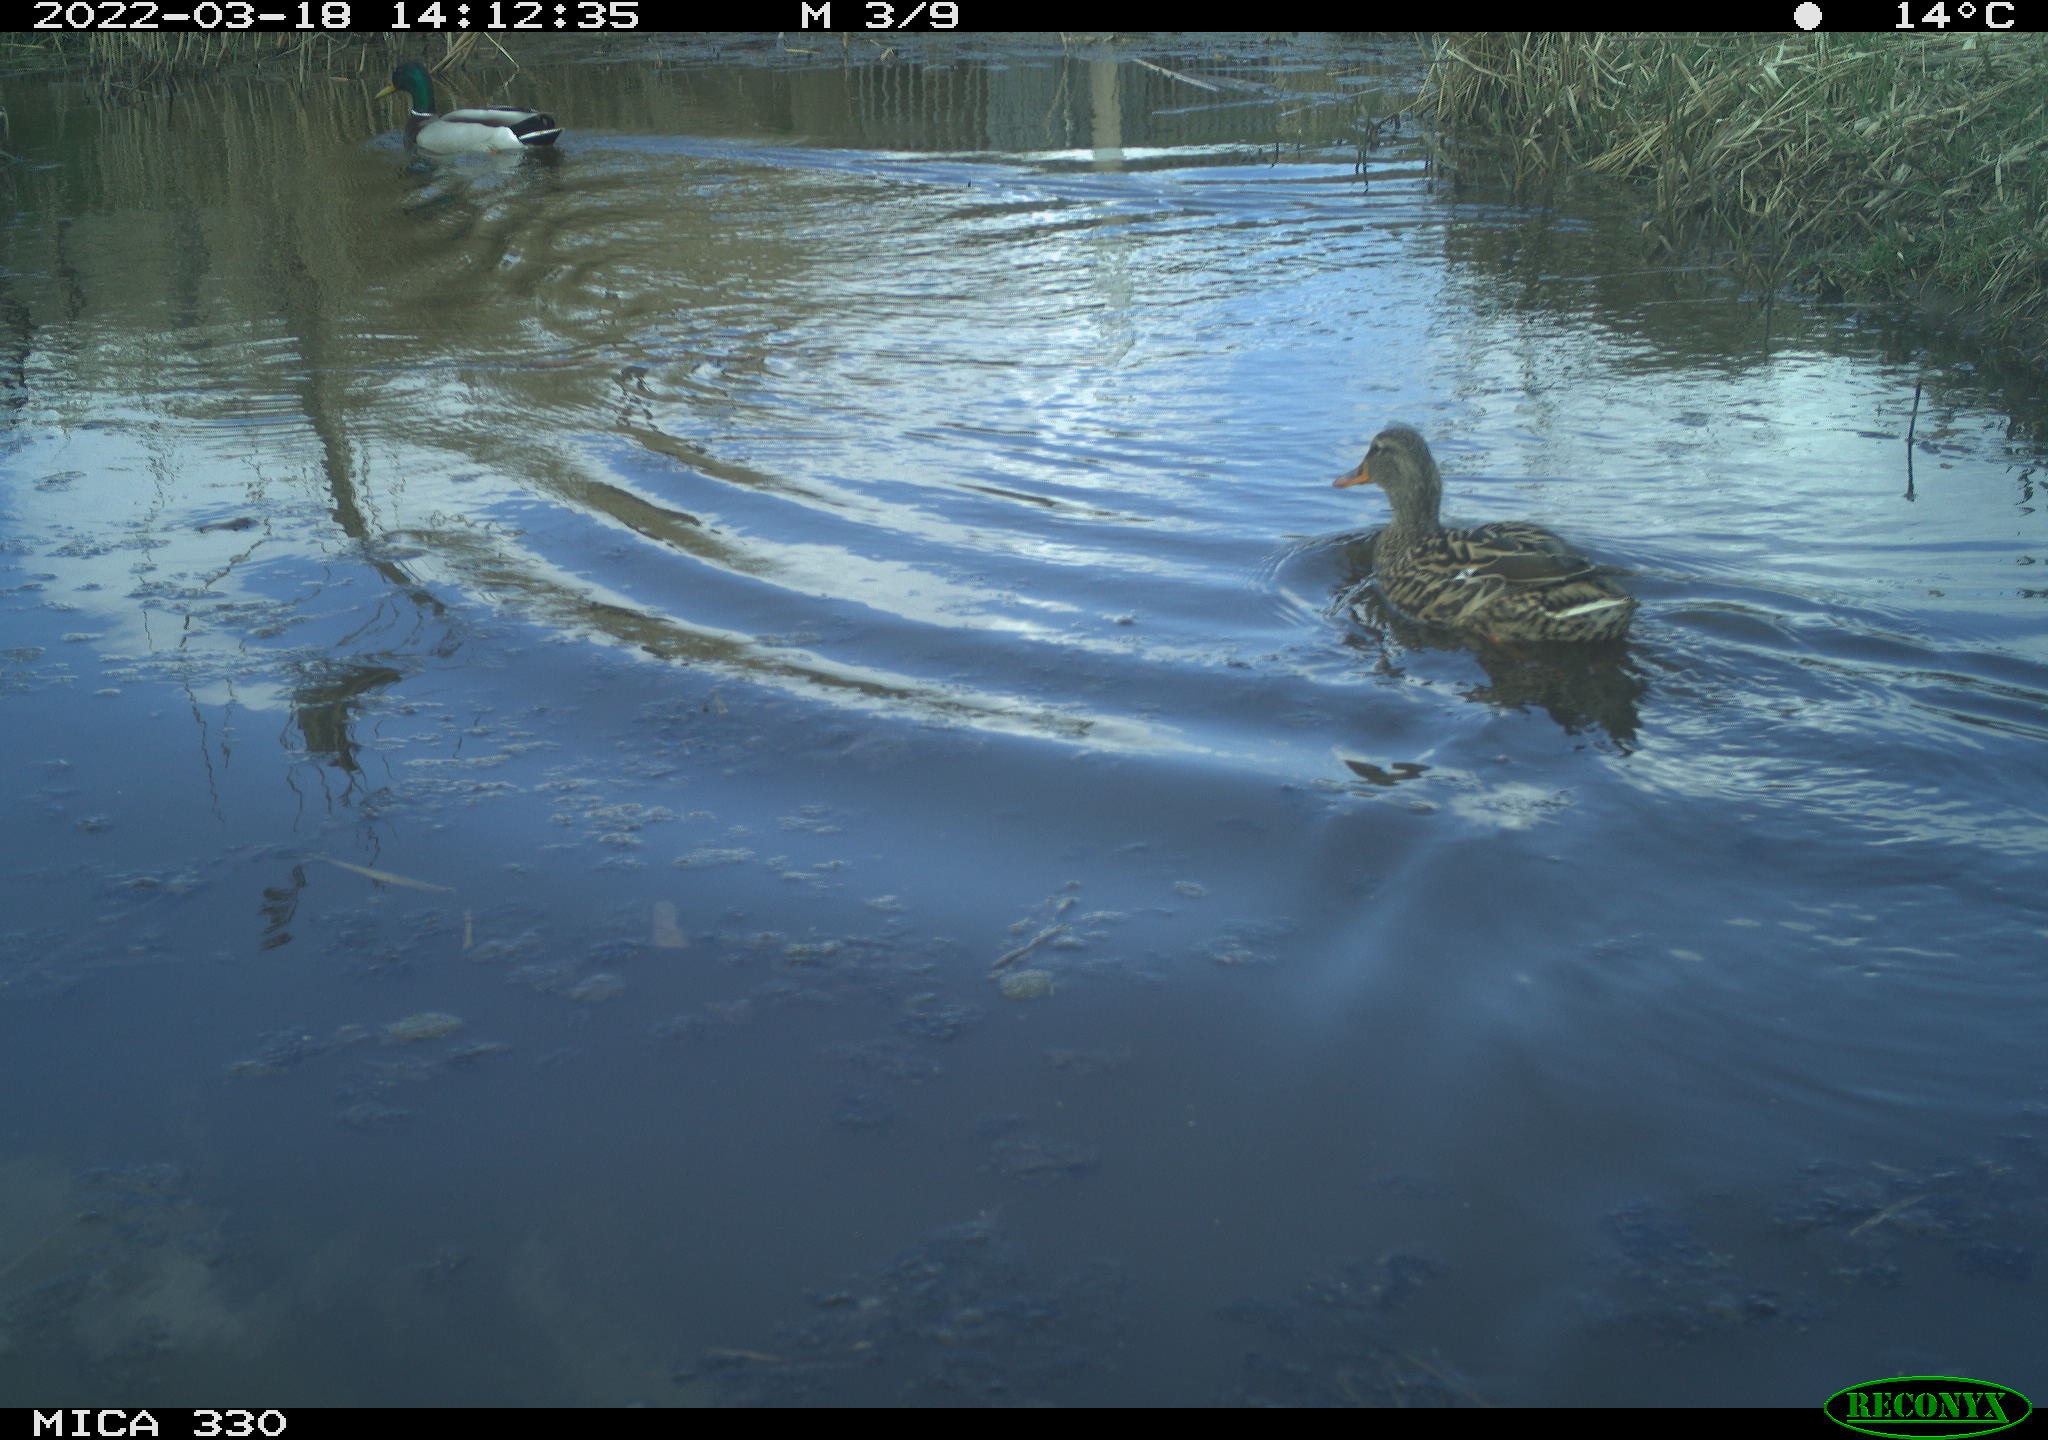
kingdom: Animalia
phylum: Chordata
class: Aves
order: Anseriformes
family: Anatidae
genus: Anas
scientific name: Anas platyrhynchos
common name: Mallard
